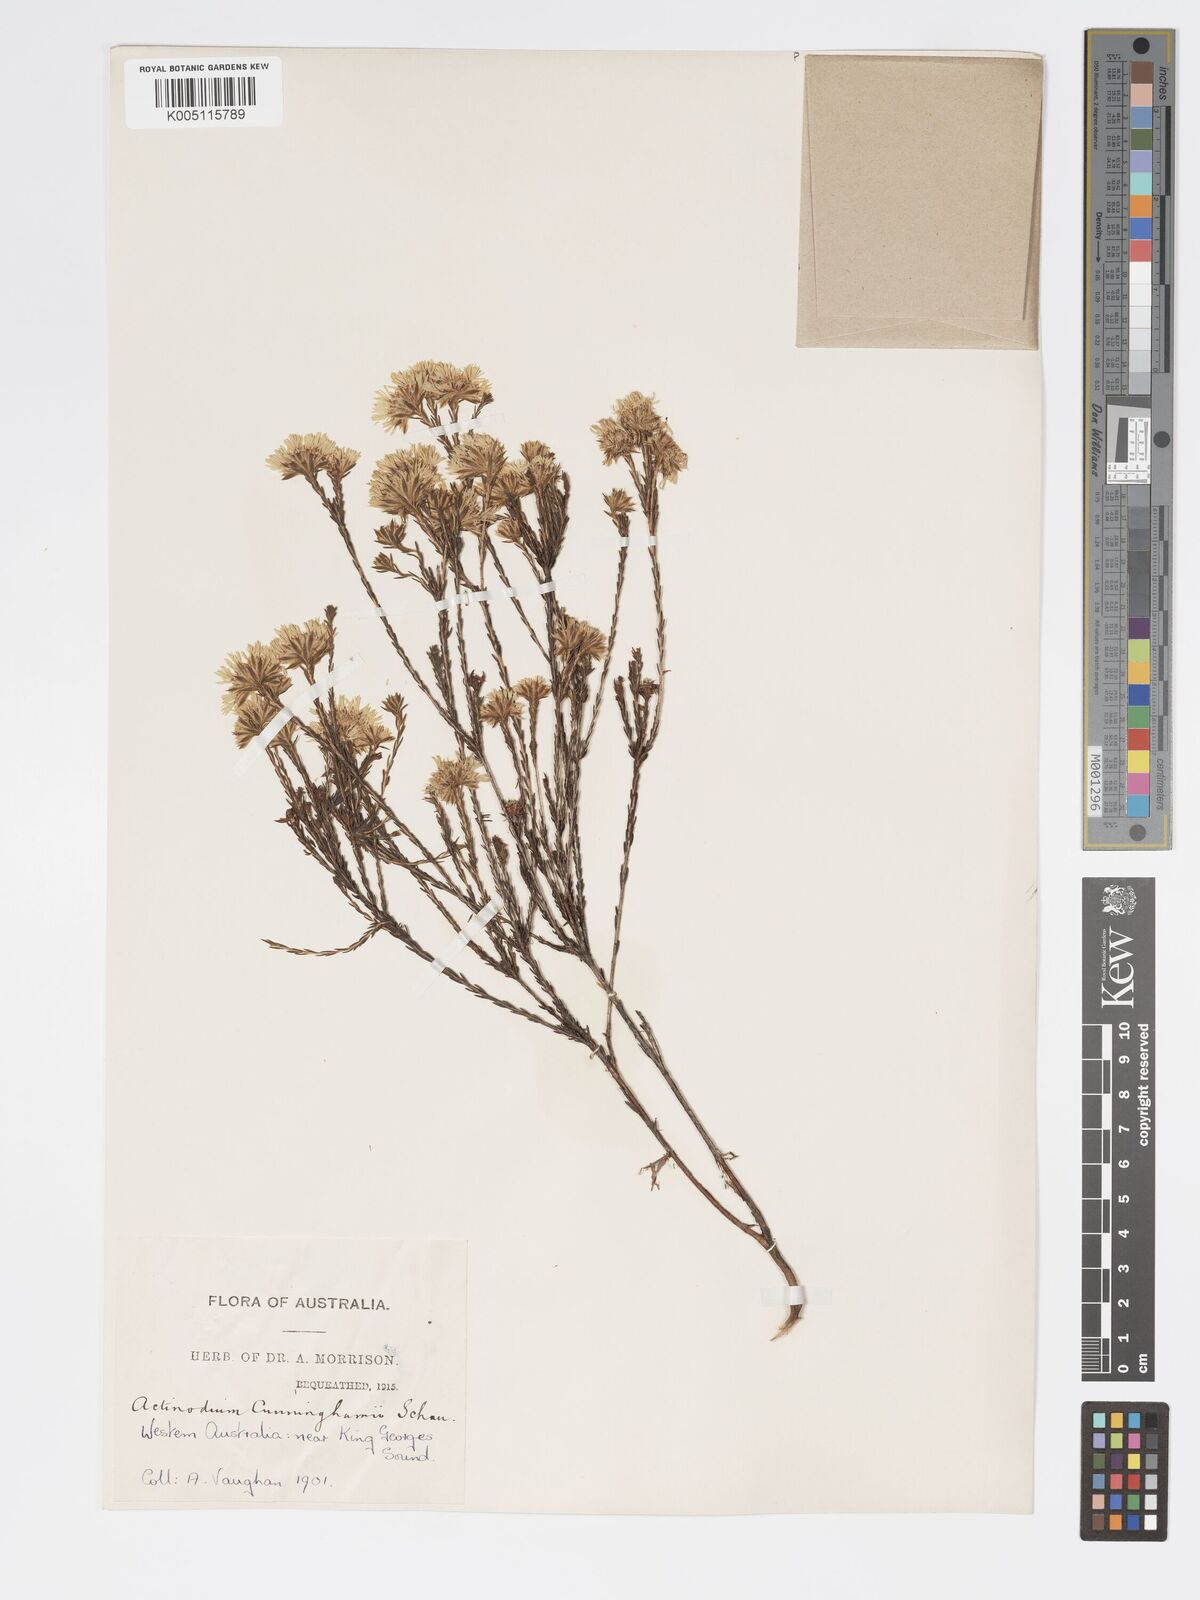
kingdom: Plantae
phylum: Tracheophyta
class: Magnoliopsida
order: Myrtales
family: Myrtaceae
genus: Actinodium
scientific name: Actinodium cunninghamii
